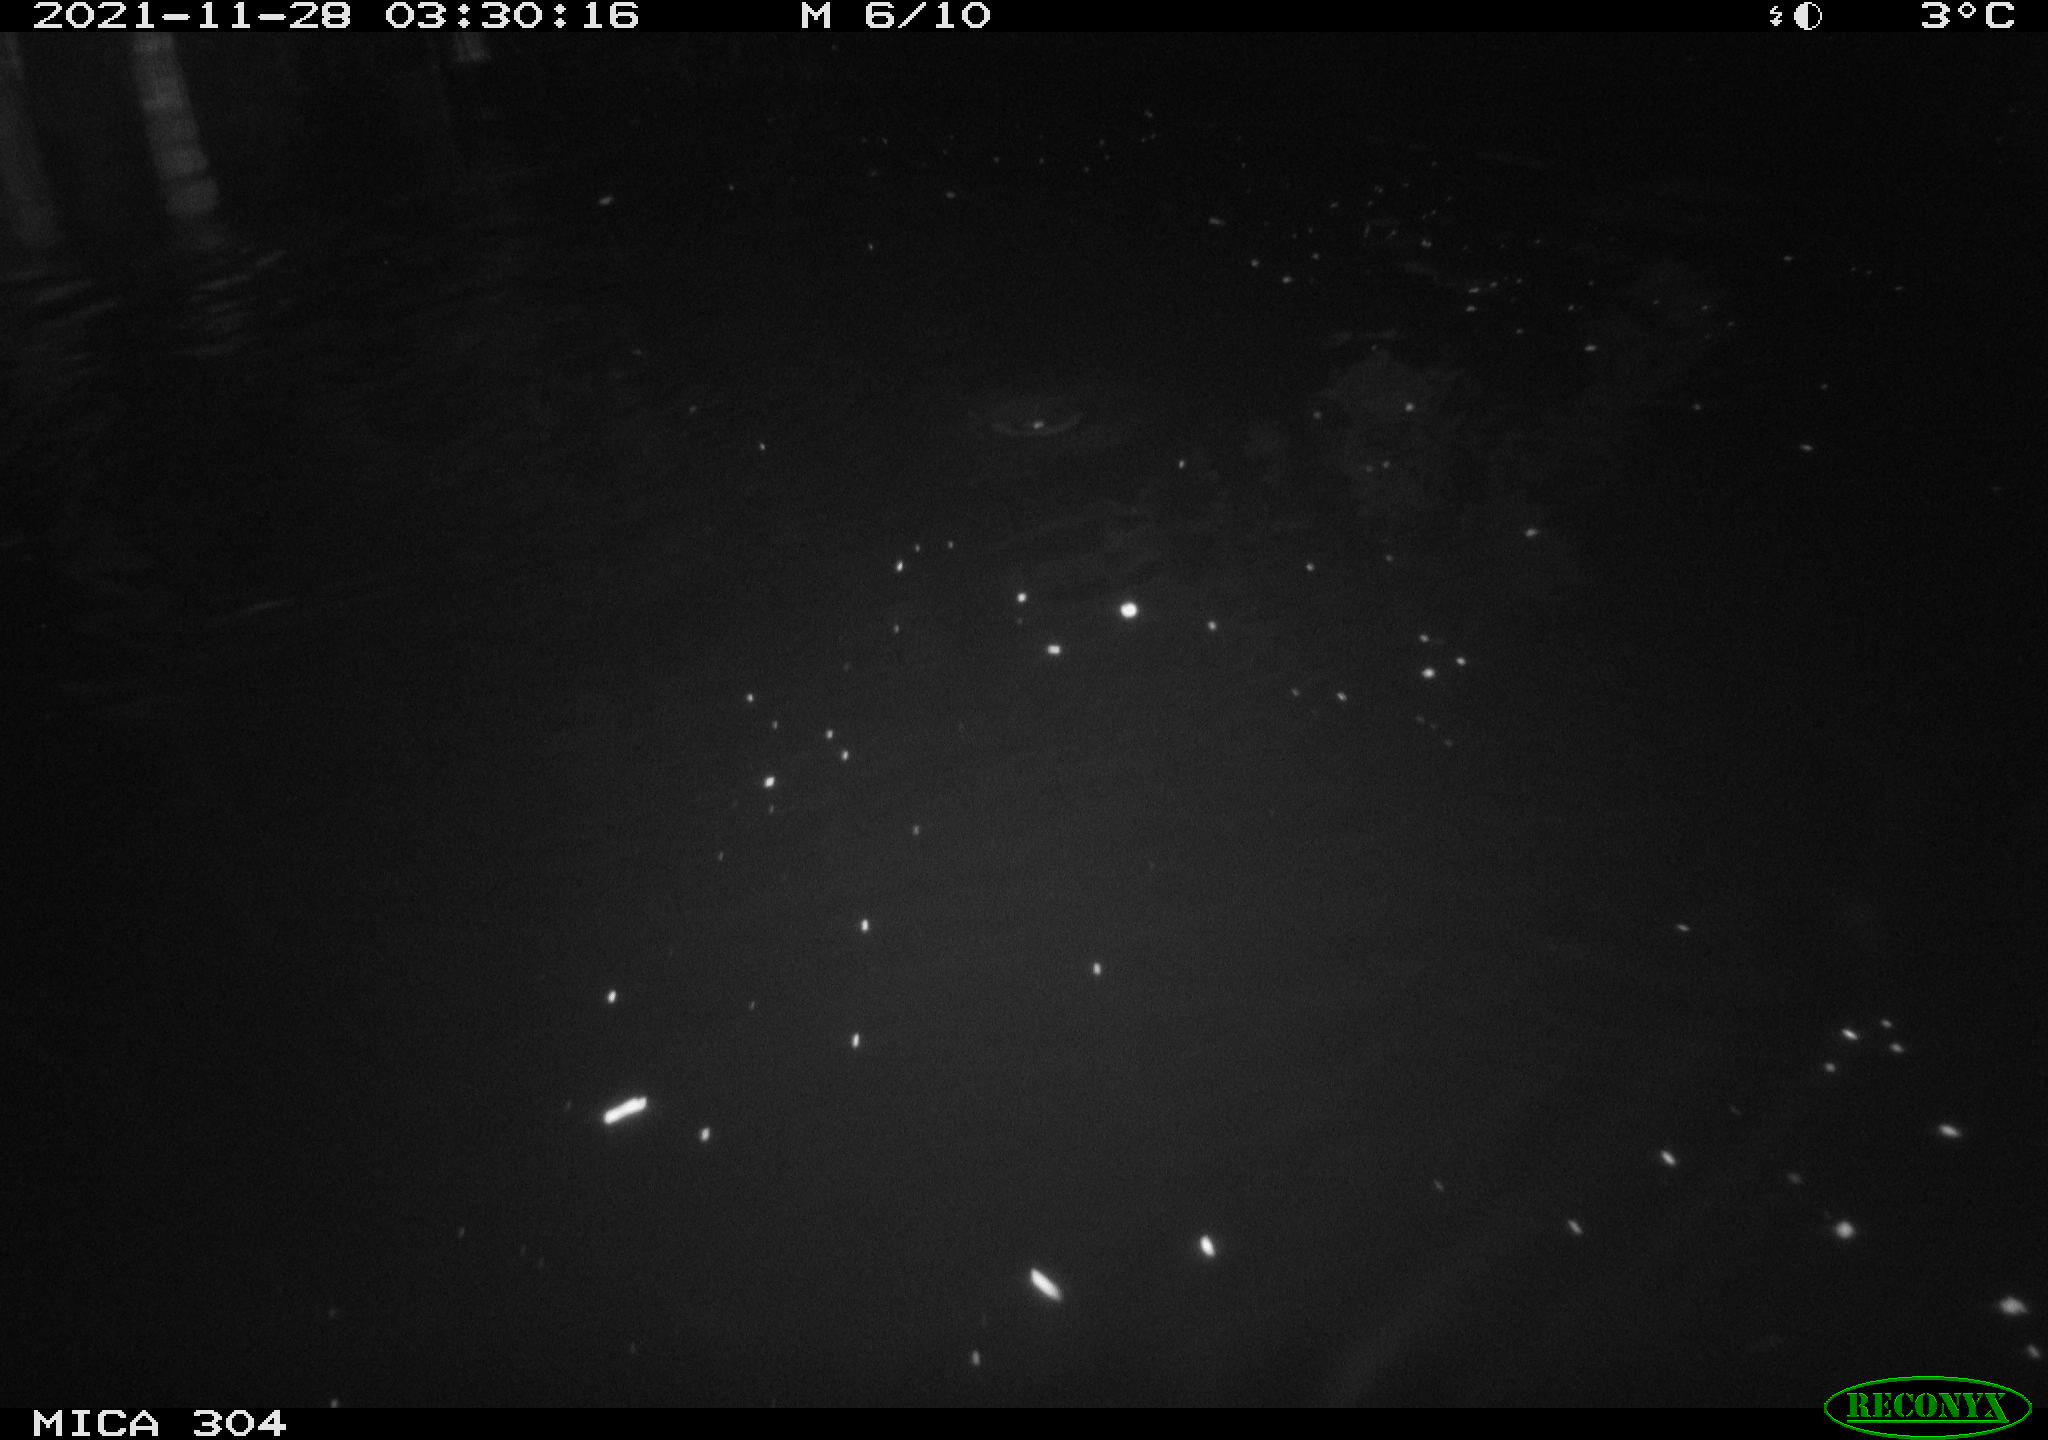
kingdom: Animalia
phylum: Chordata
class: Mammalia
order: Rodentia
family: Muridae
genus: Rattus
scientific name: Rattus norvegicus
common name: Brown rat
